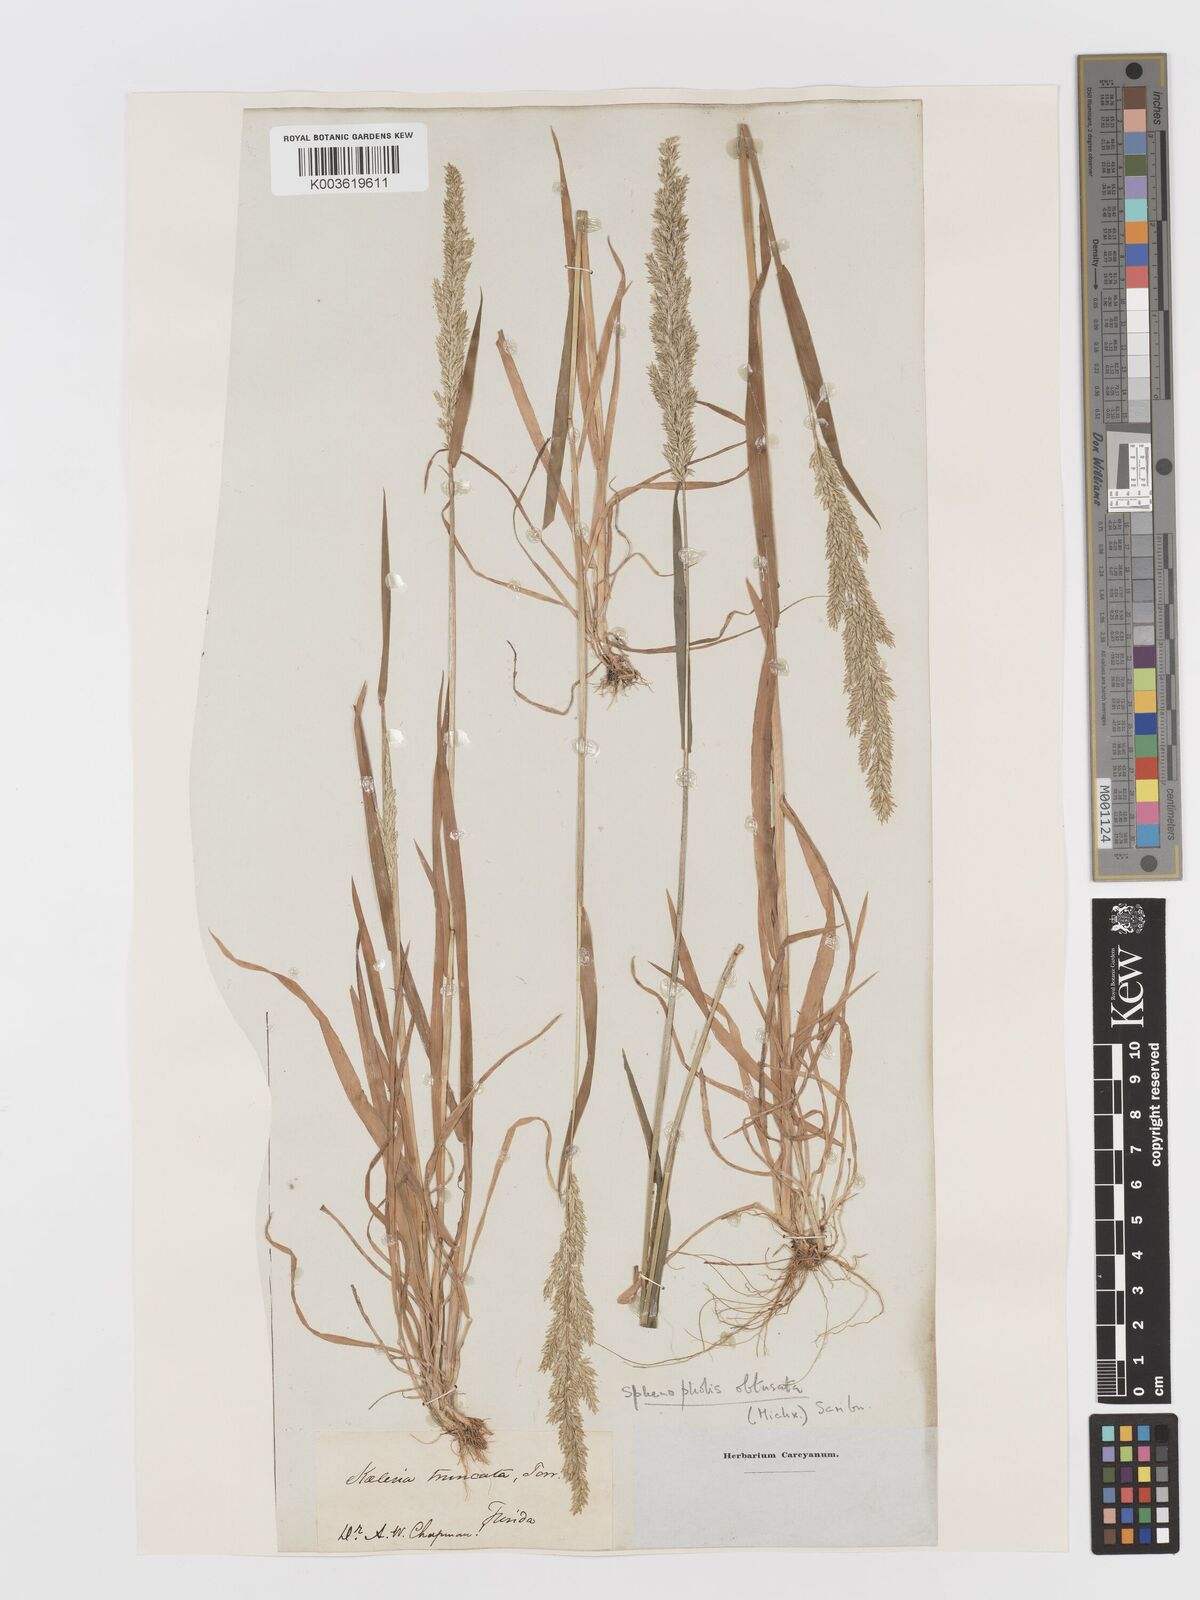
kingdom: Plantae
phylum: Tracheophyta
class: Liliopsida
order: Poales
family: Poaceae
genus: Sphenopholis
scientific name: Sphenopholis obtusata
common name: Prairie grass
